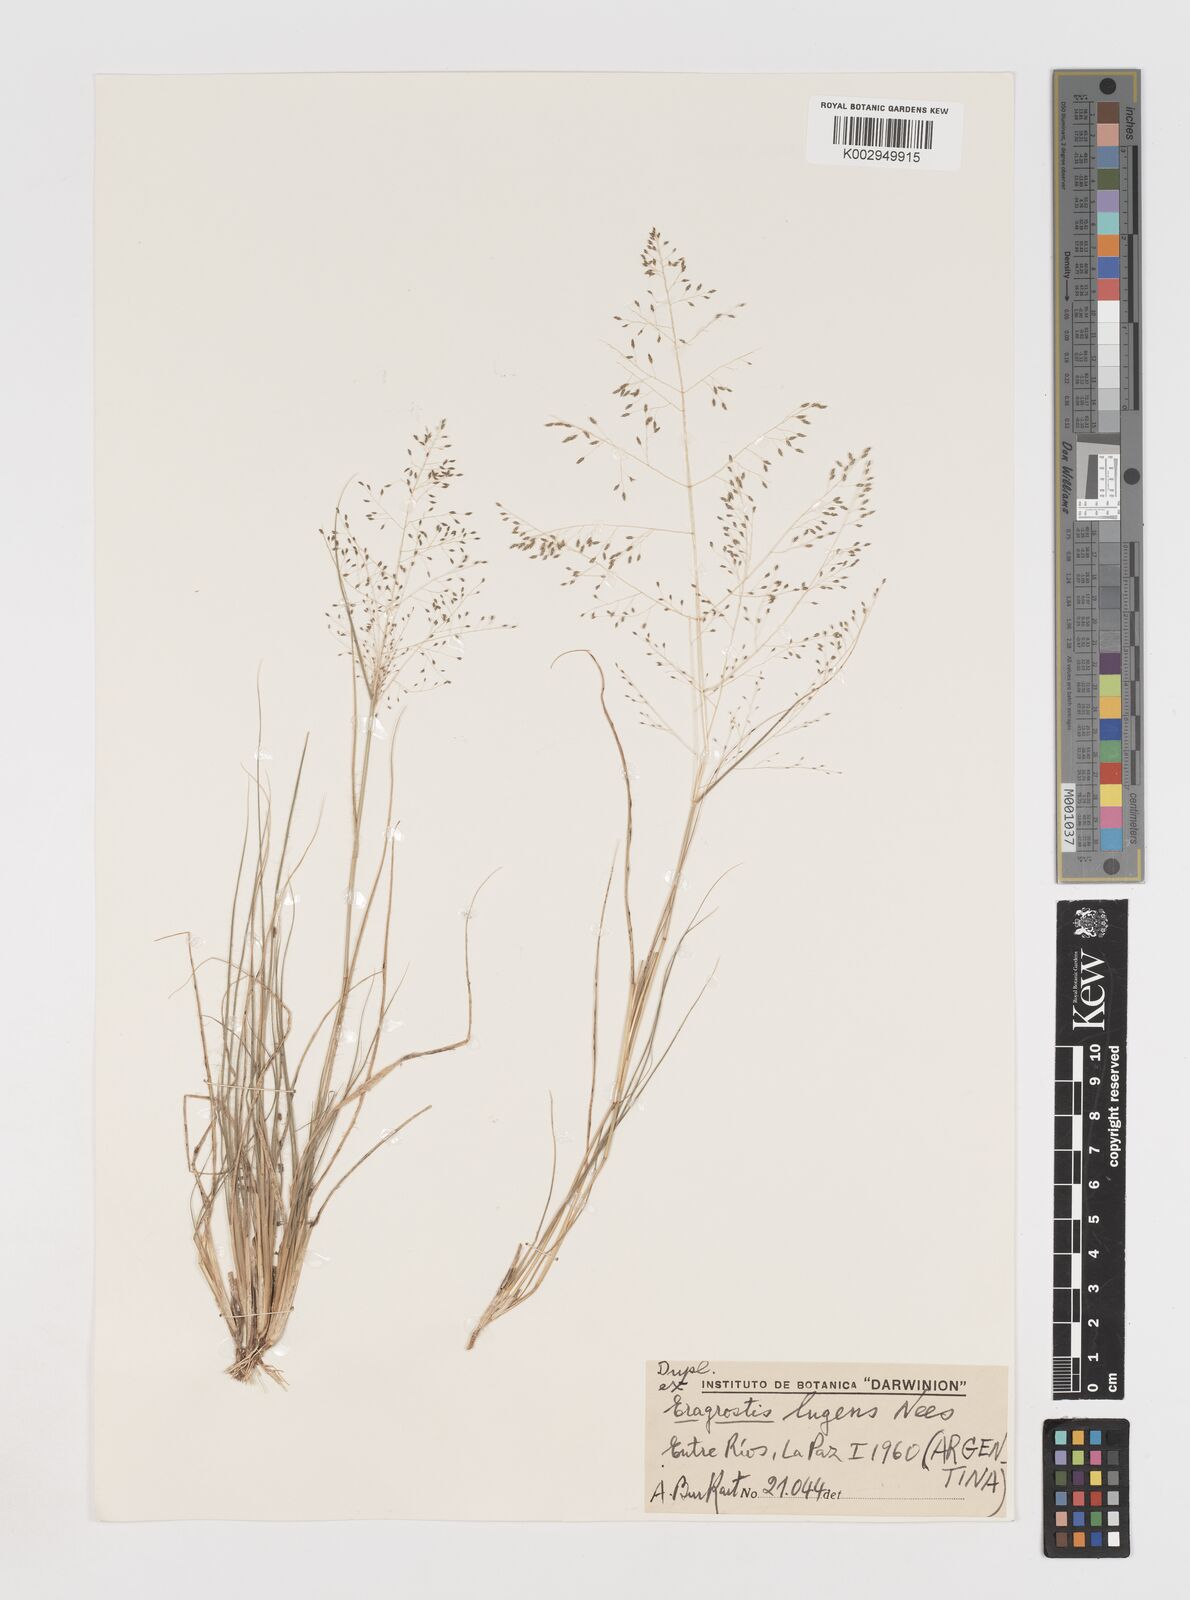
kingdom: Plantae
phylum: Tracheophyta
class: Liliopsida
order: Poales
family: Poaceae
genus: Eragrostis
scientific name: Eragrostis lugens
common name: Mourning love grass
